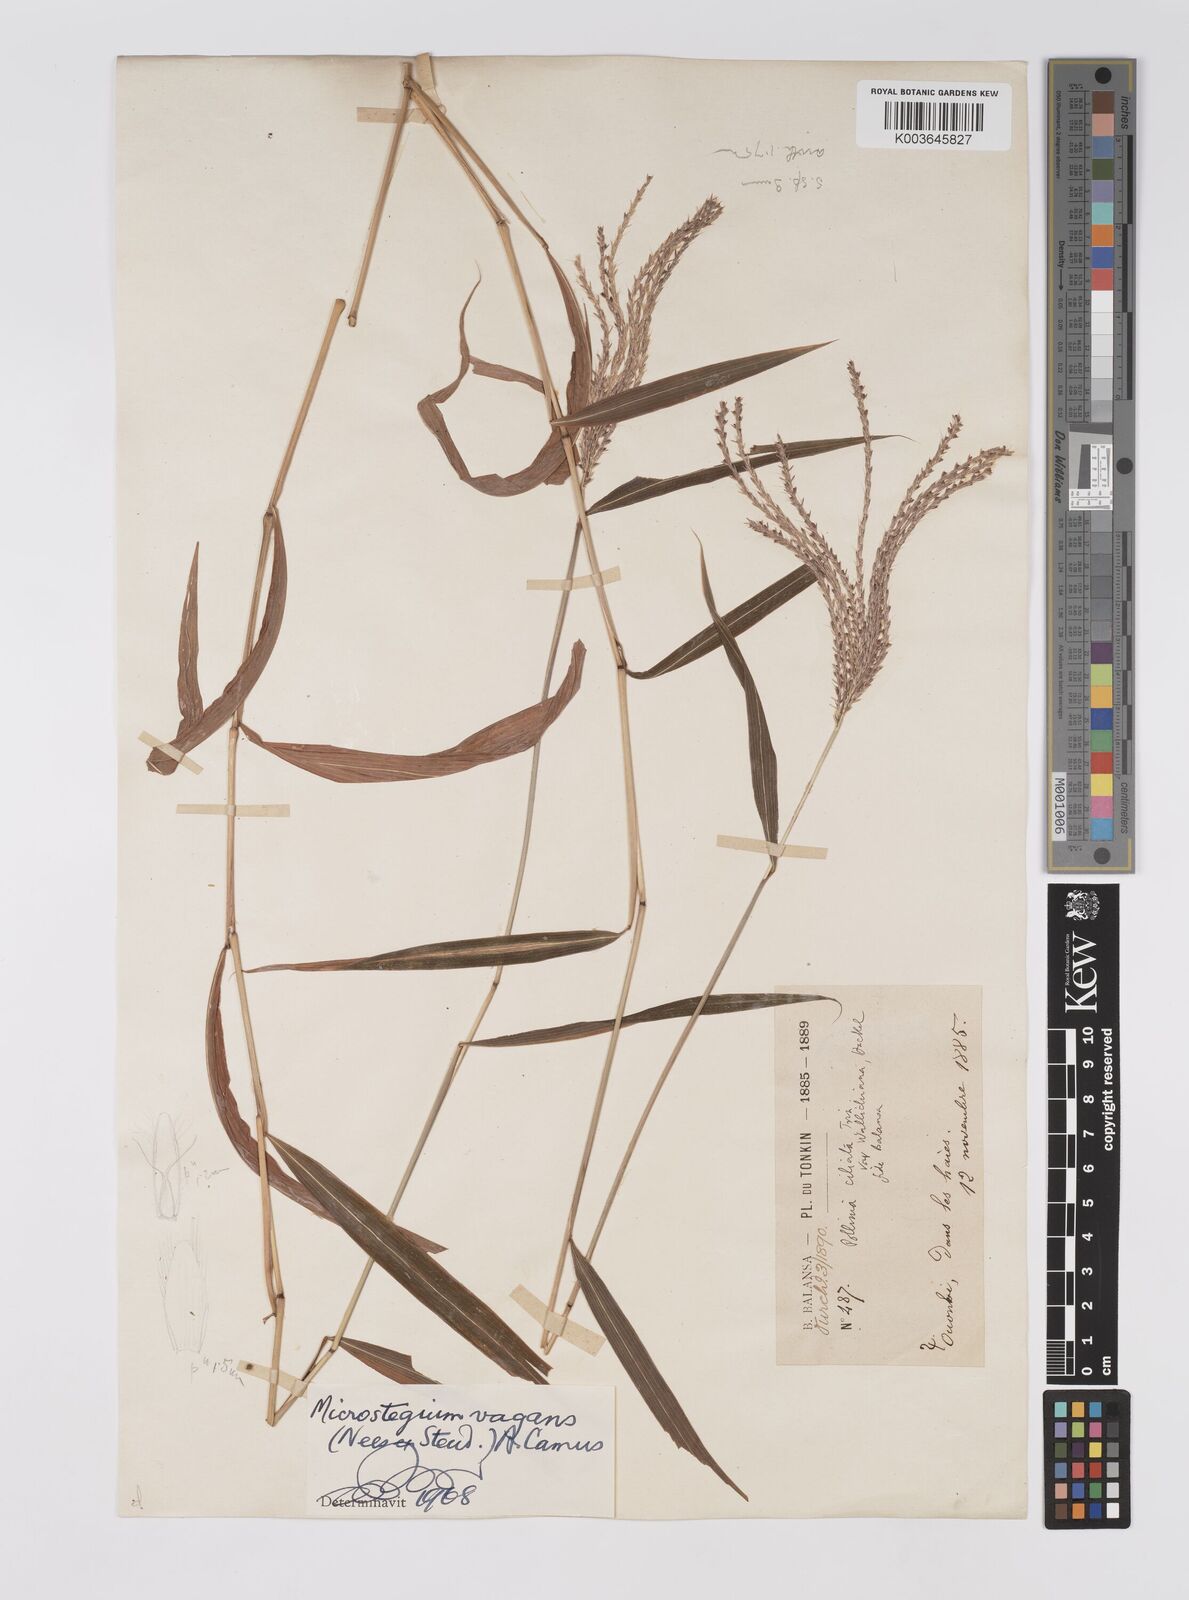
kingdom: Plantae
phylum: Tracheophyta
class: Liliopsida
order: Poales
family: Poaceae
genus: Microstegium
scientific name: Microstegium fasciculatum
